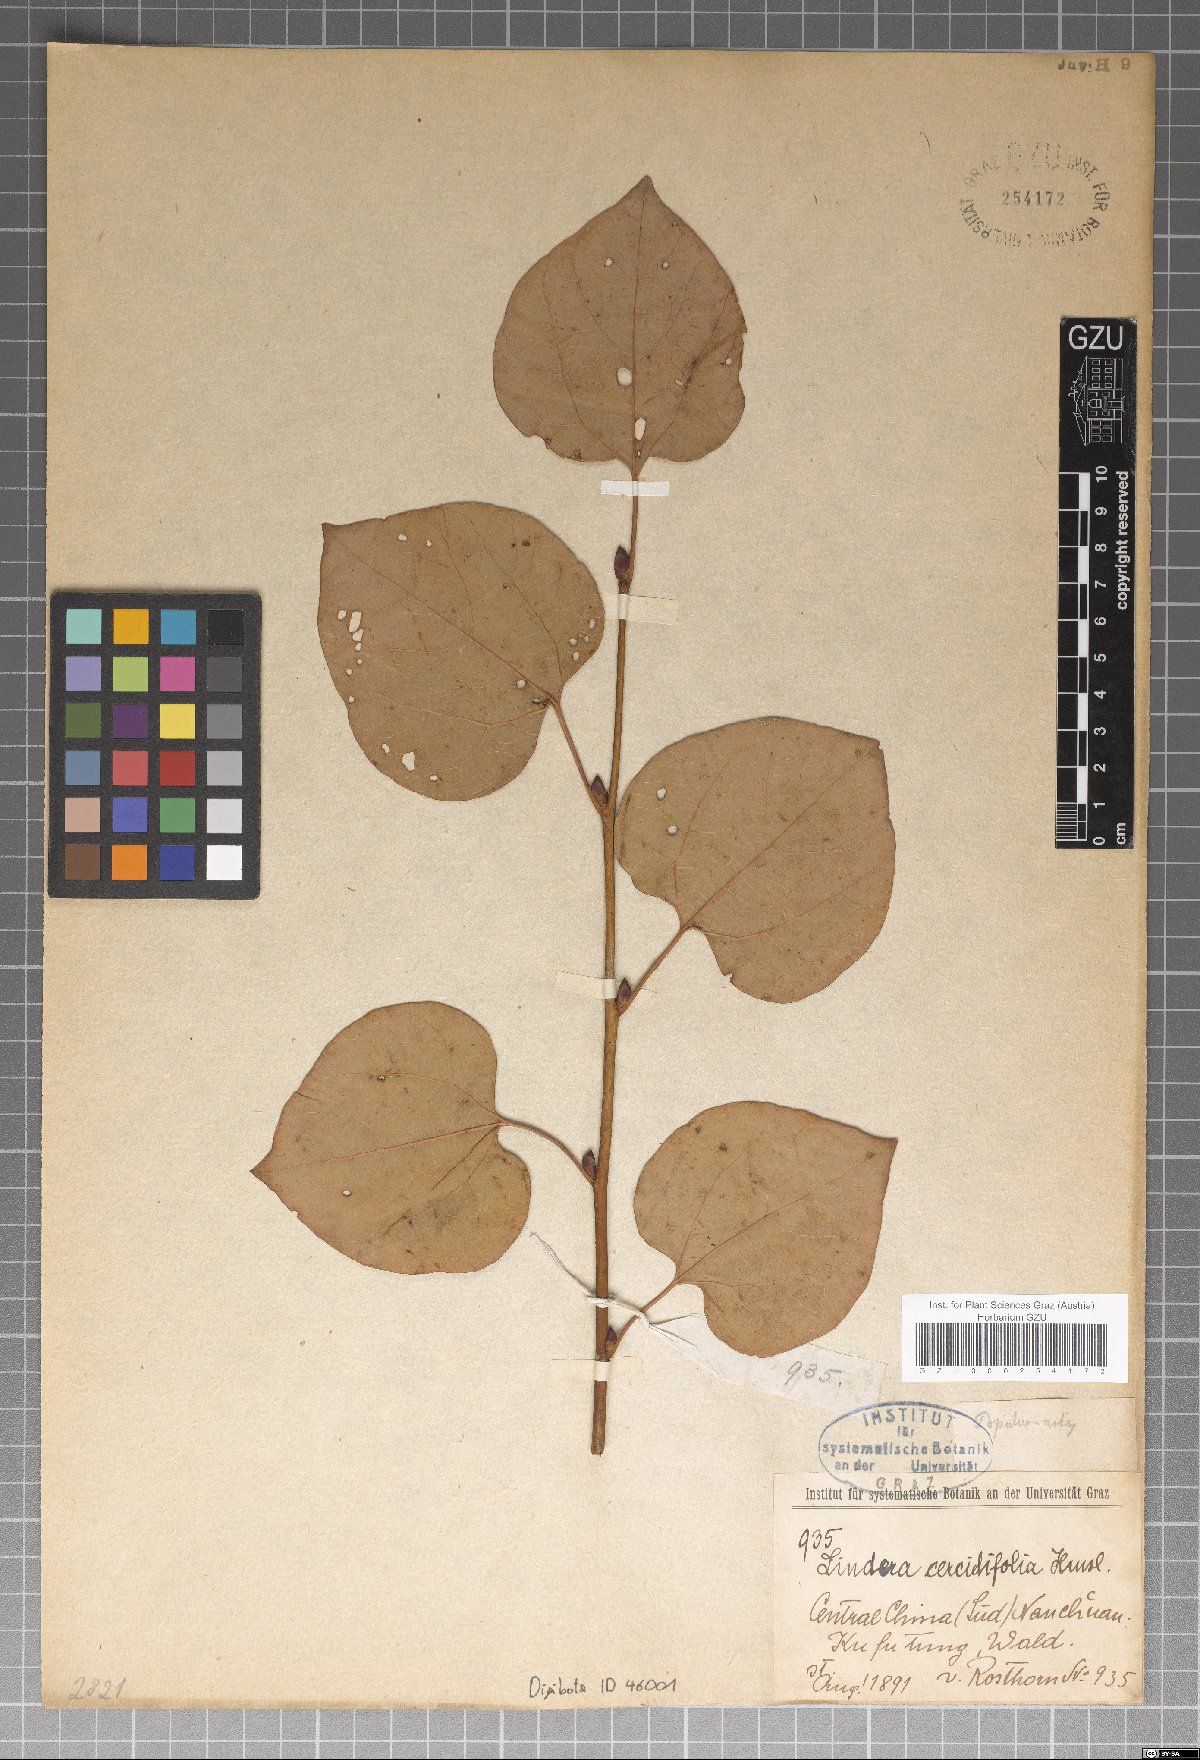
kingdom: Plantae
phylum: Tracheophyta
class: Magnoliopsida
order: Laurales
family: Lauraceae
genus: Lindera
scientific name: Lindera obtusiloba
